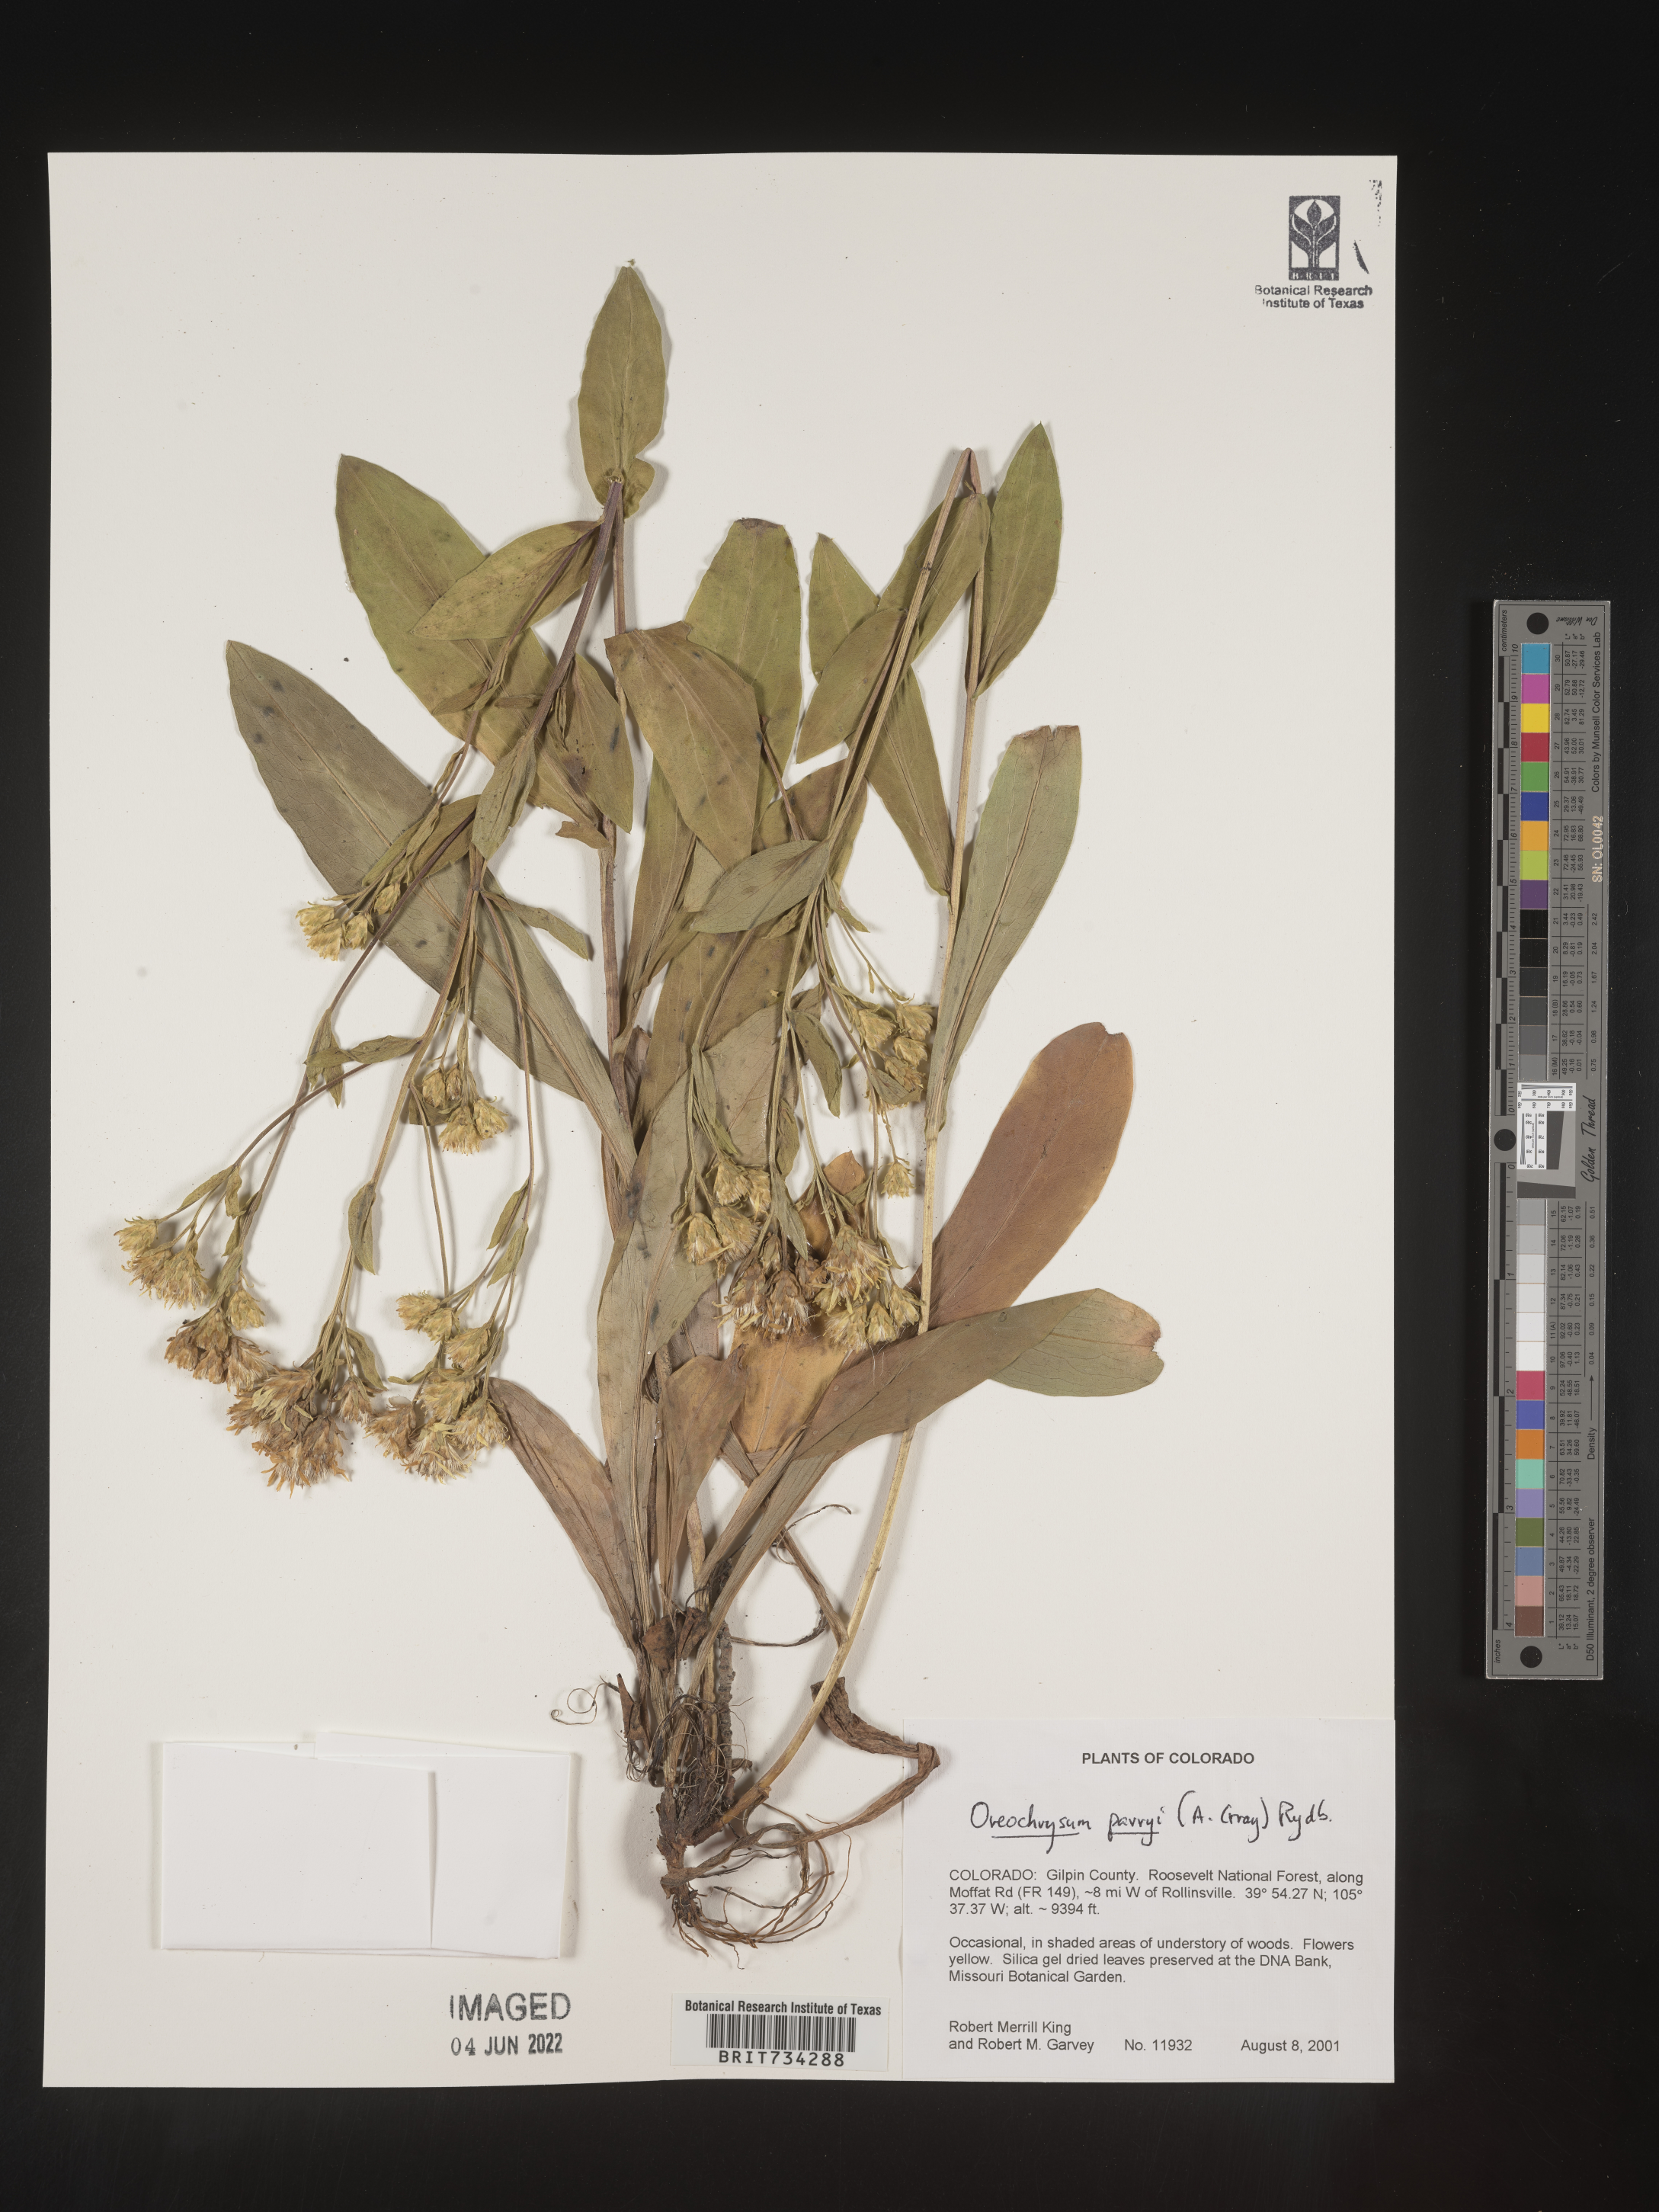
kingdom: Plantae
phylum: Tracheophyta
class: Magnoliopsida
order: Asterales
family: Asteraceae
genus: Oreochrysum
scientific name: Oreochrysum parryi
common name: Parry's goldenweed
